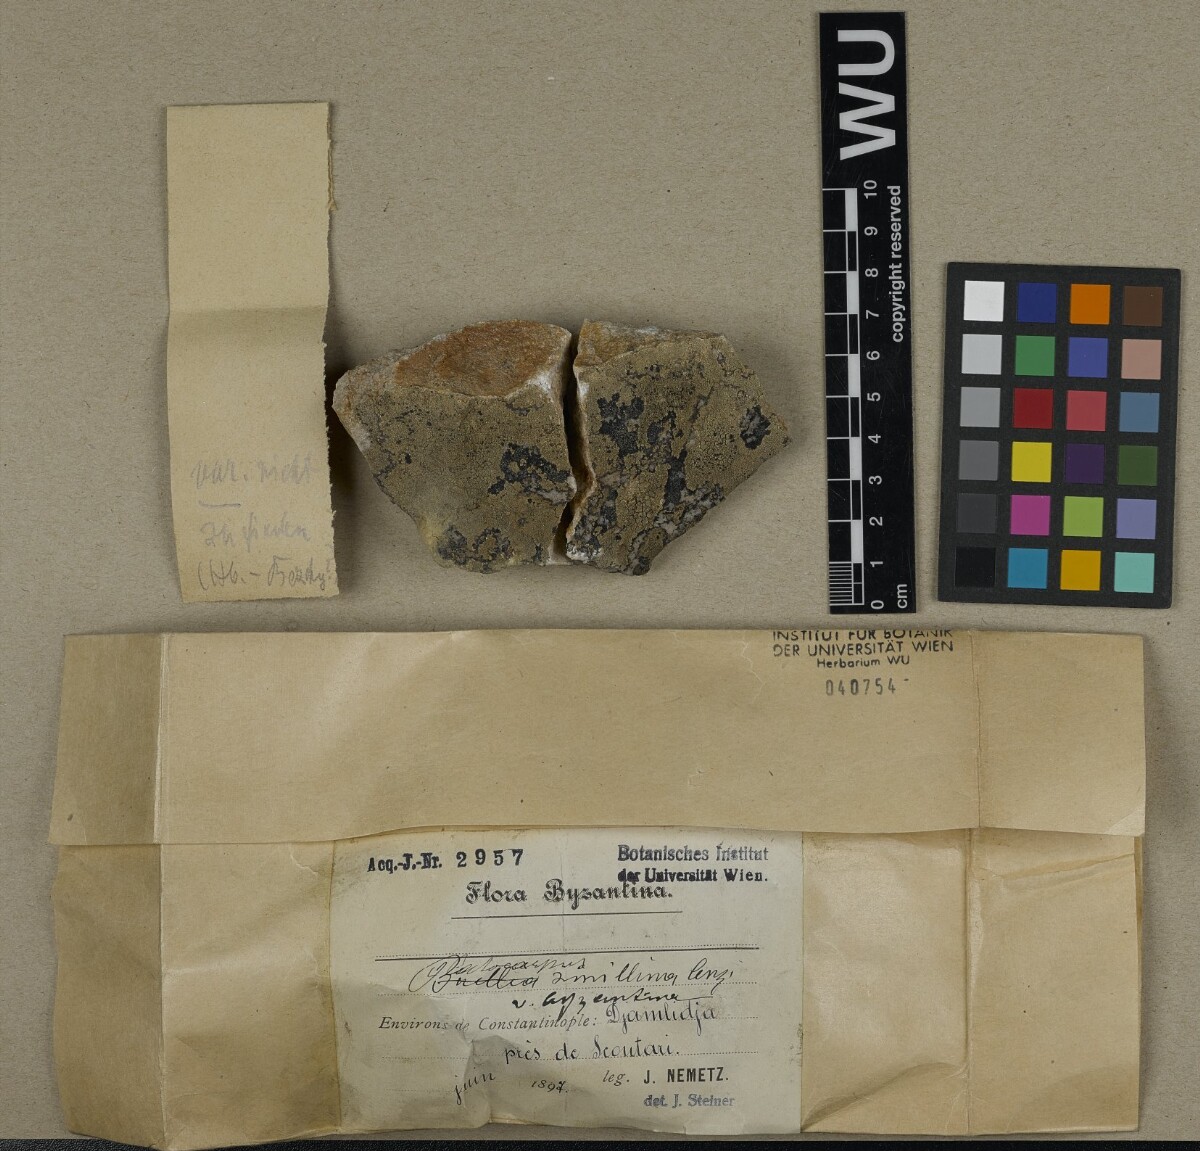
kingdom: Fungi
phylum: Ascomycota
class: Lecanoromycetes
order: Rhizocarpales
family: Rhizocarpaceae
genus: Rhizocarpon
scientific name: Rhizocarpon simillimum
